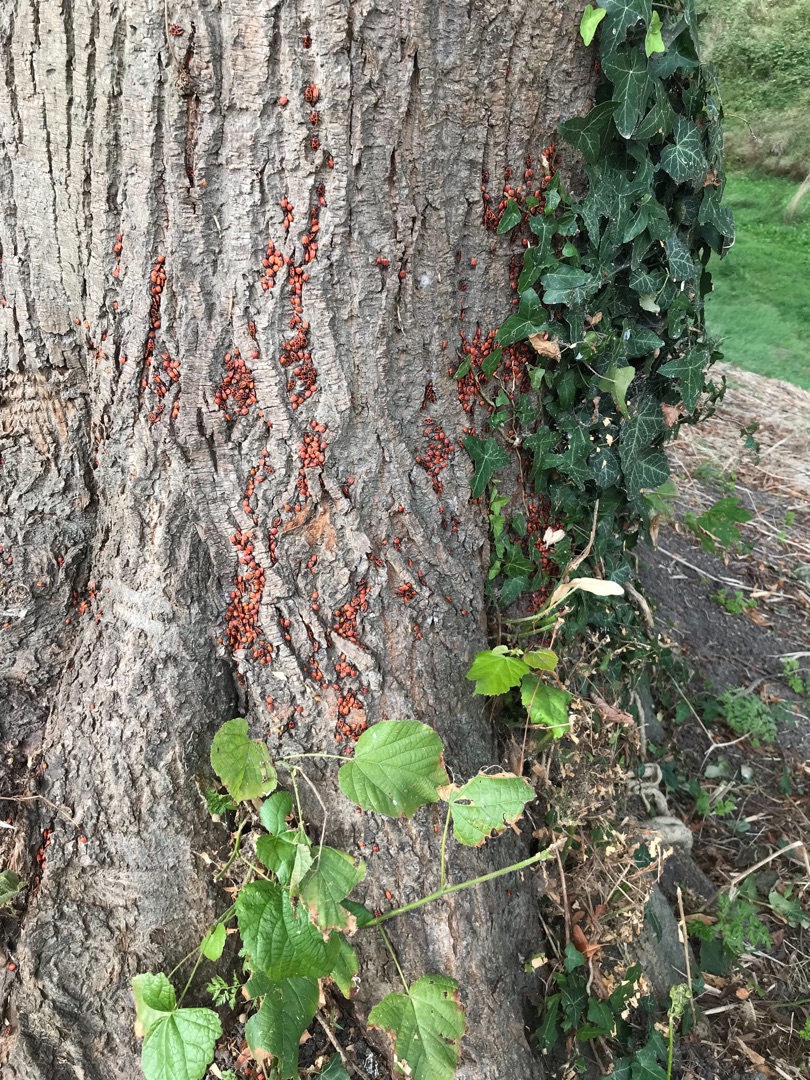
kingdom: Animalia
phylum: Arthropoda
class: Insecta
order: Hemiptera
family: Pyrrhocoridae
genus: Pyrrhocoris
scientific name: Pyrrhocoris apterus
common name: Ildtæge
